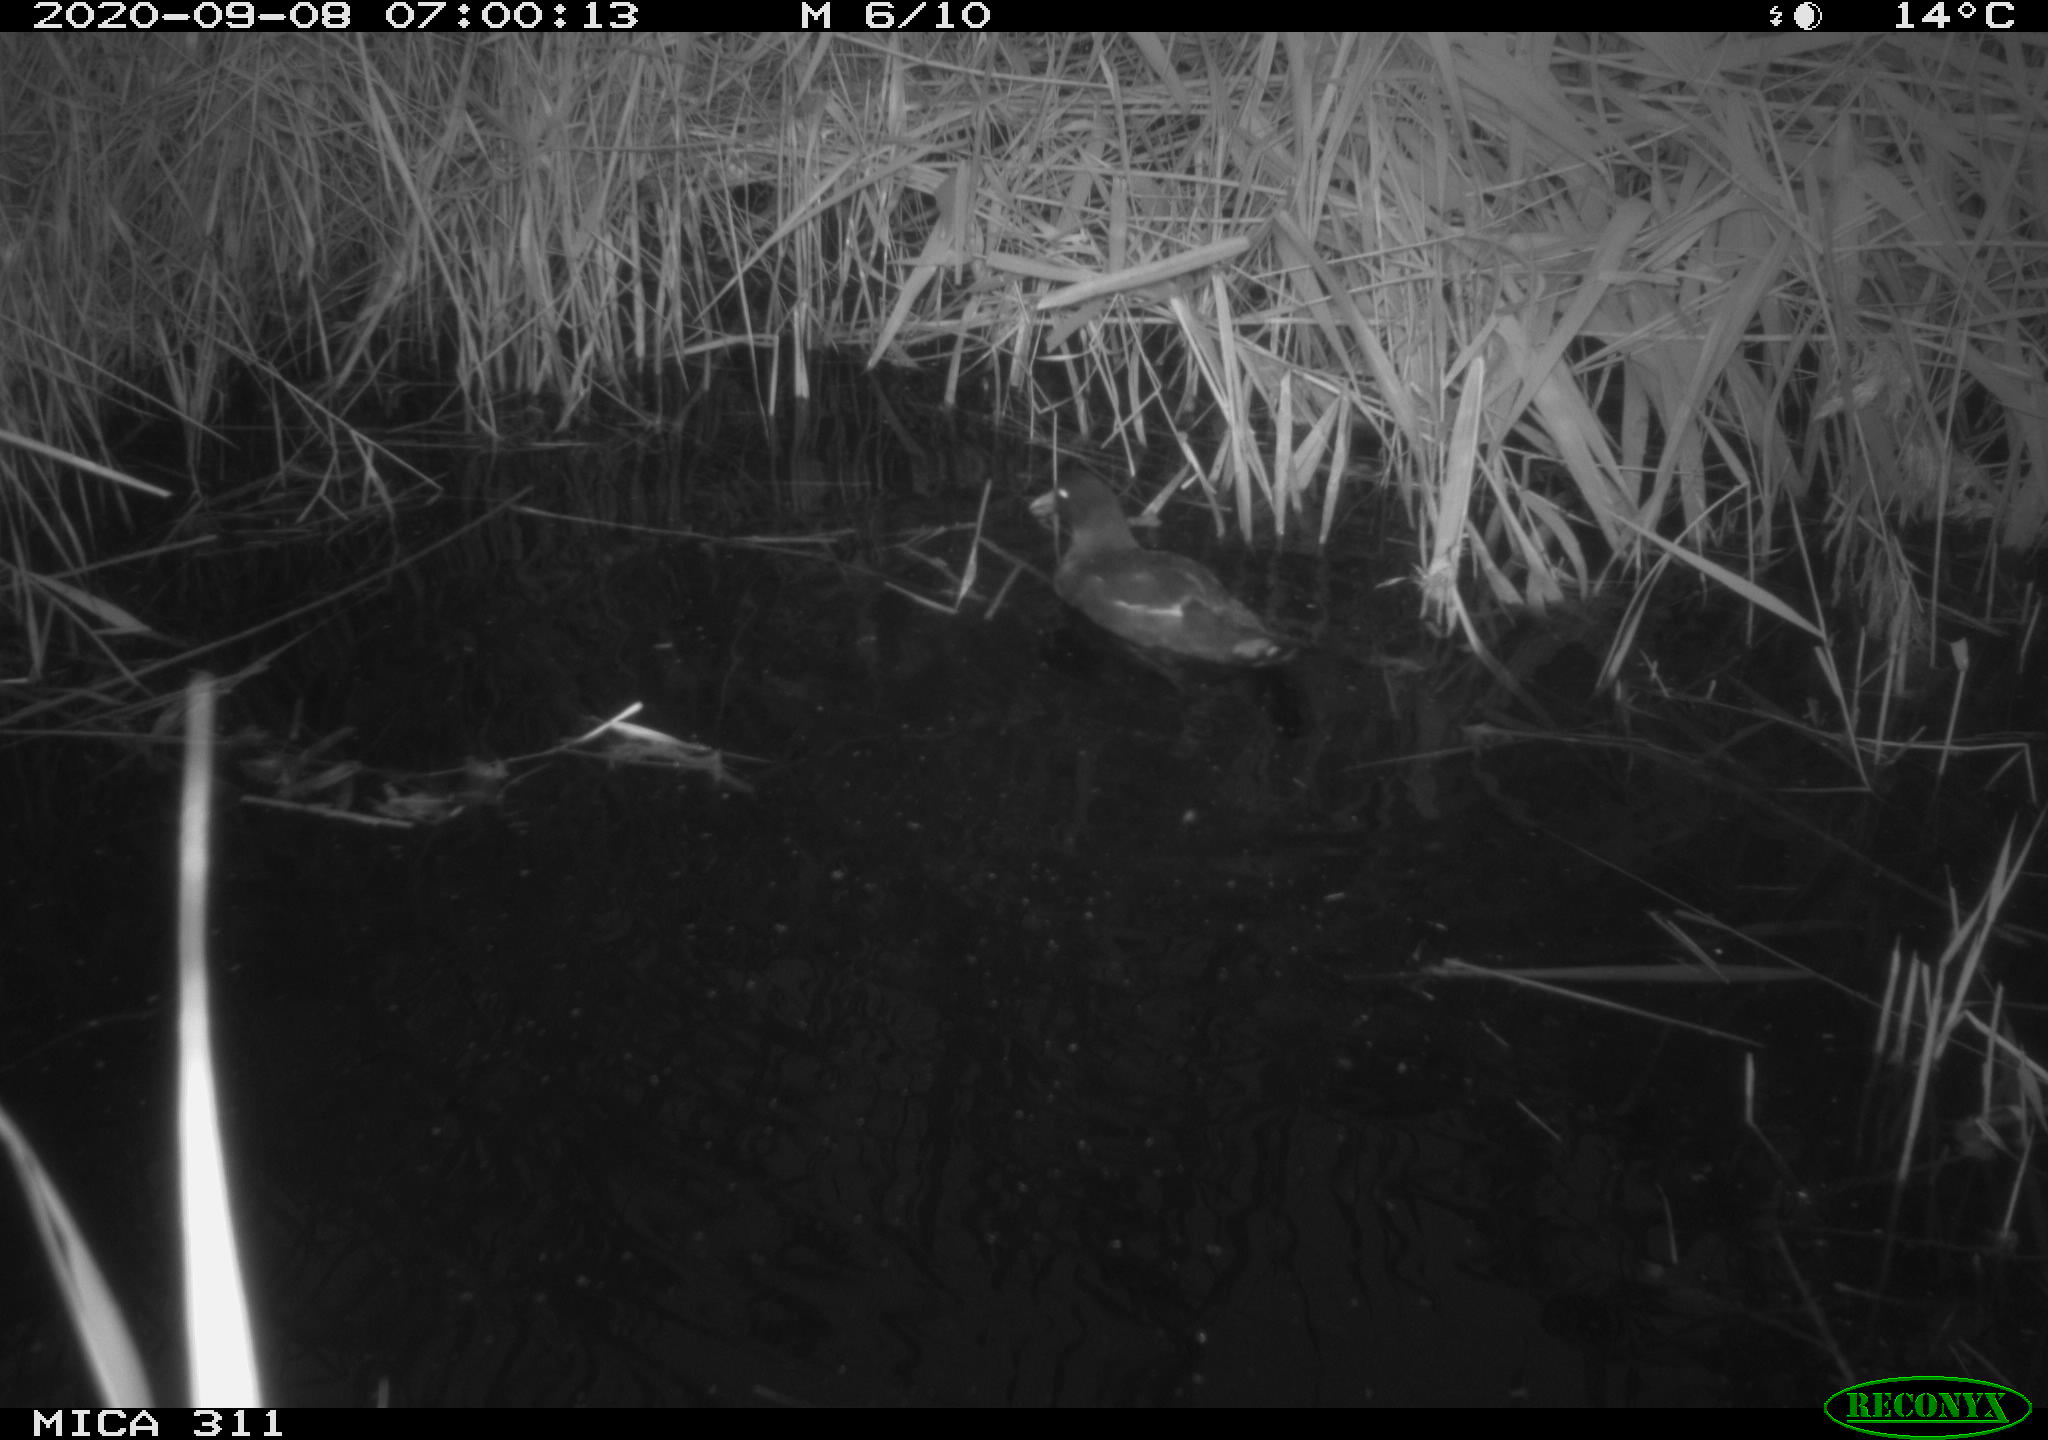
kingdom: Animalia
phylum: Chordata
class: Aves
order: Gruiformes
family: Rallidae
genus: Gallinula
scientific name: Gallinula chloropus
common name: Common moorhen
